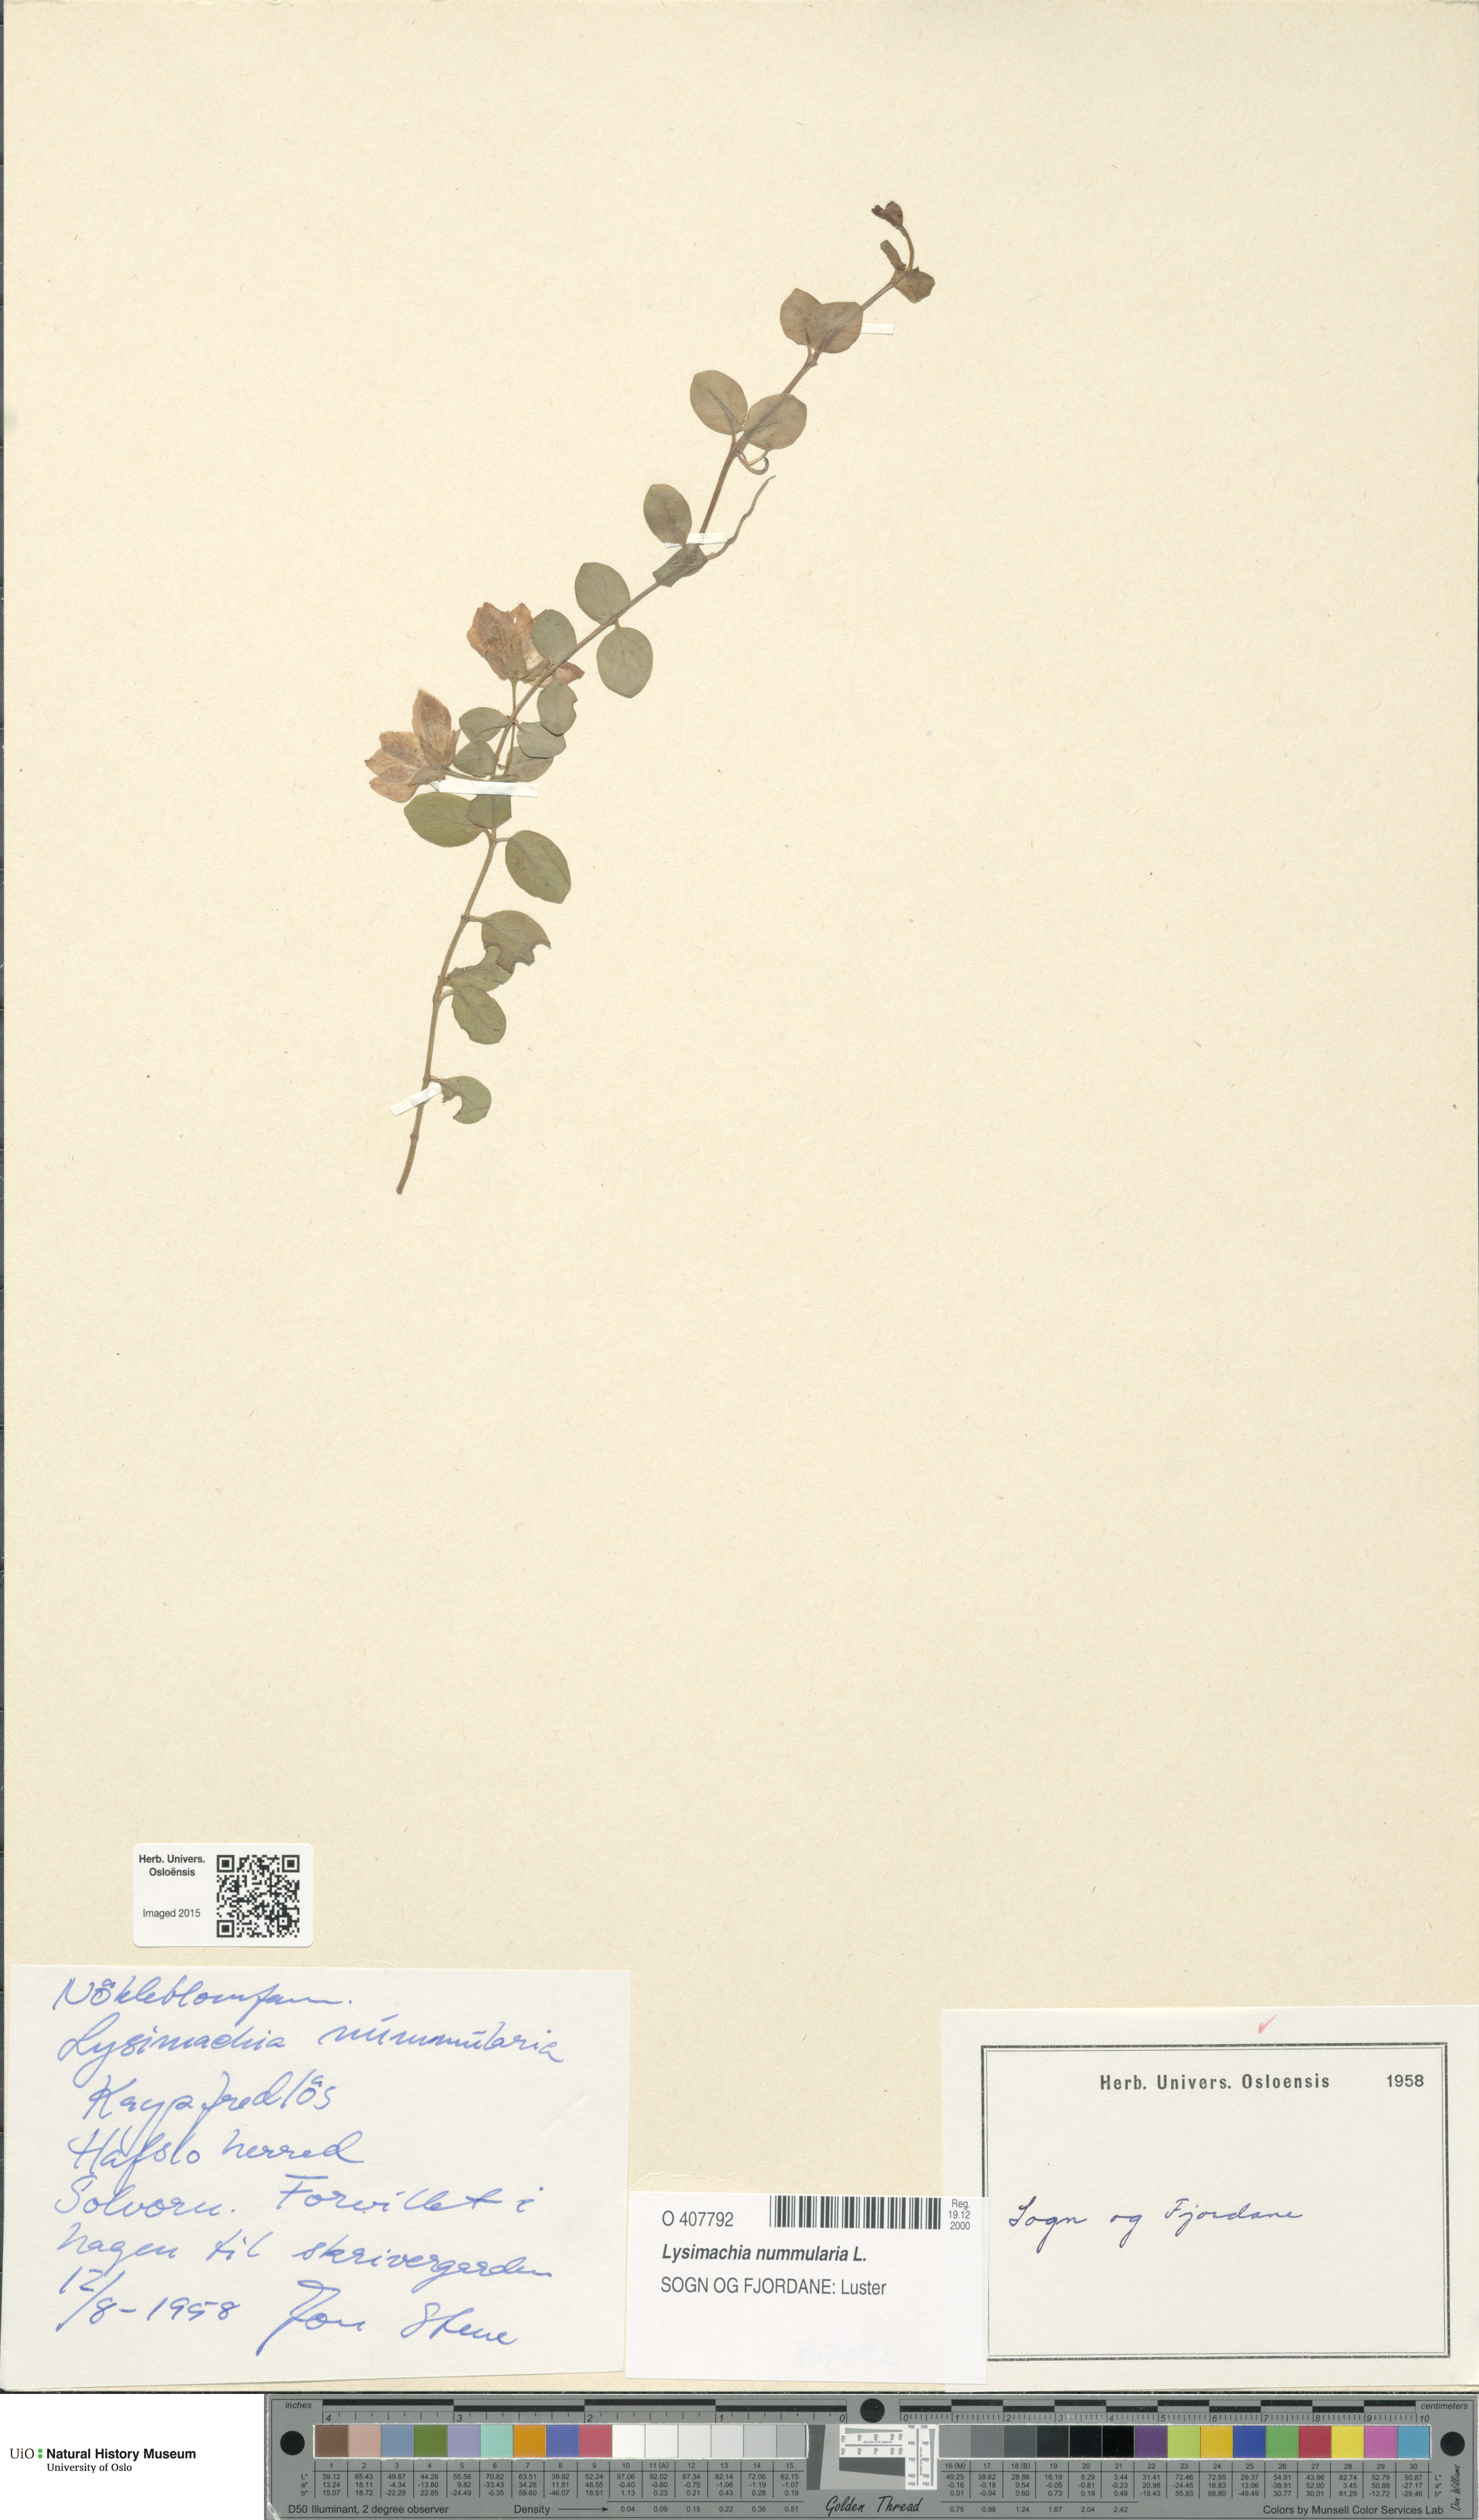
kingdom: Plantae
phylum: Tracheophyta
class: Magnoliopsida
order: Ericales
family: Primulaceae
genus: Lysimachia
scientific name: Lysimachia nummularia
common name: Moneywort
